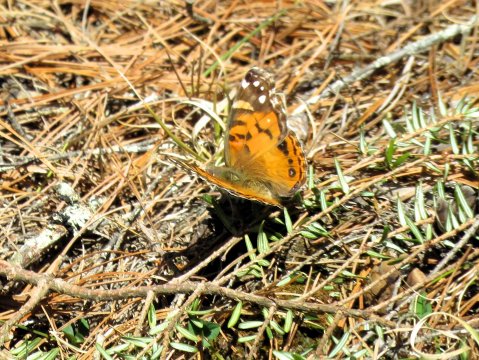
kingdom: Animalia
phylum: Arthropoda
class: Insecta
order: Lepidoptera
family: Nymphalidae
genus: Vanessa
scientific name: Vanessa virginiensis
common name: American Lady
